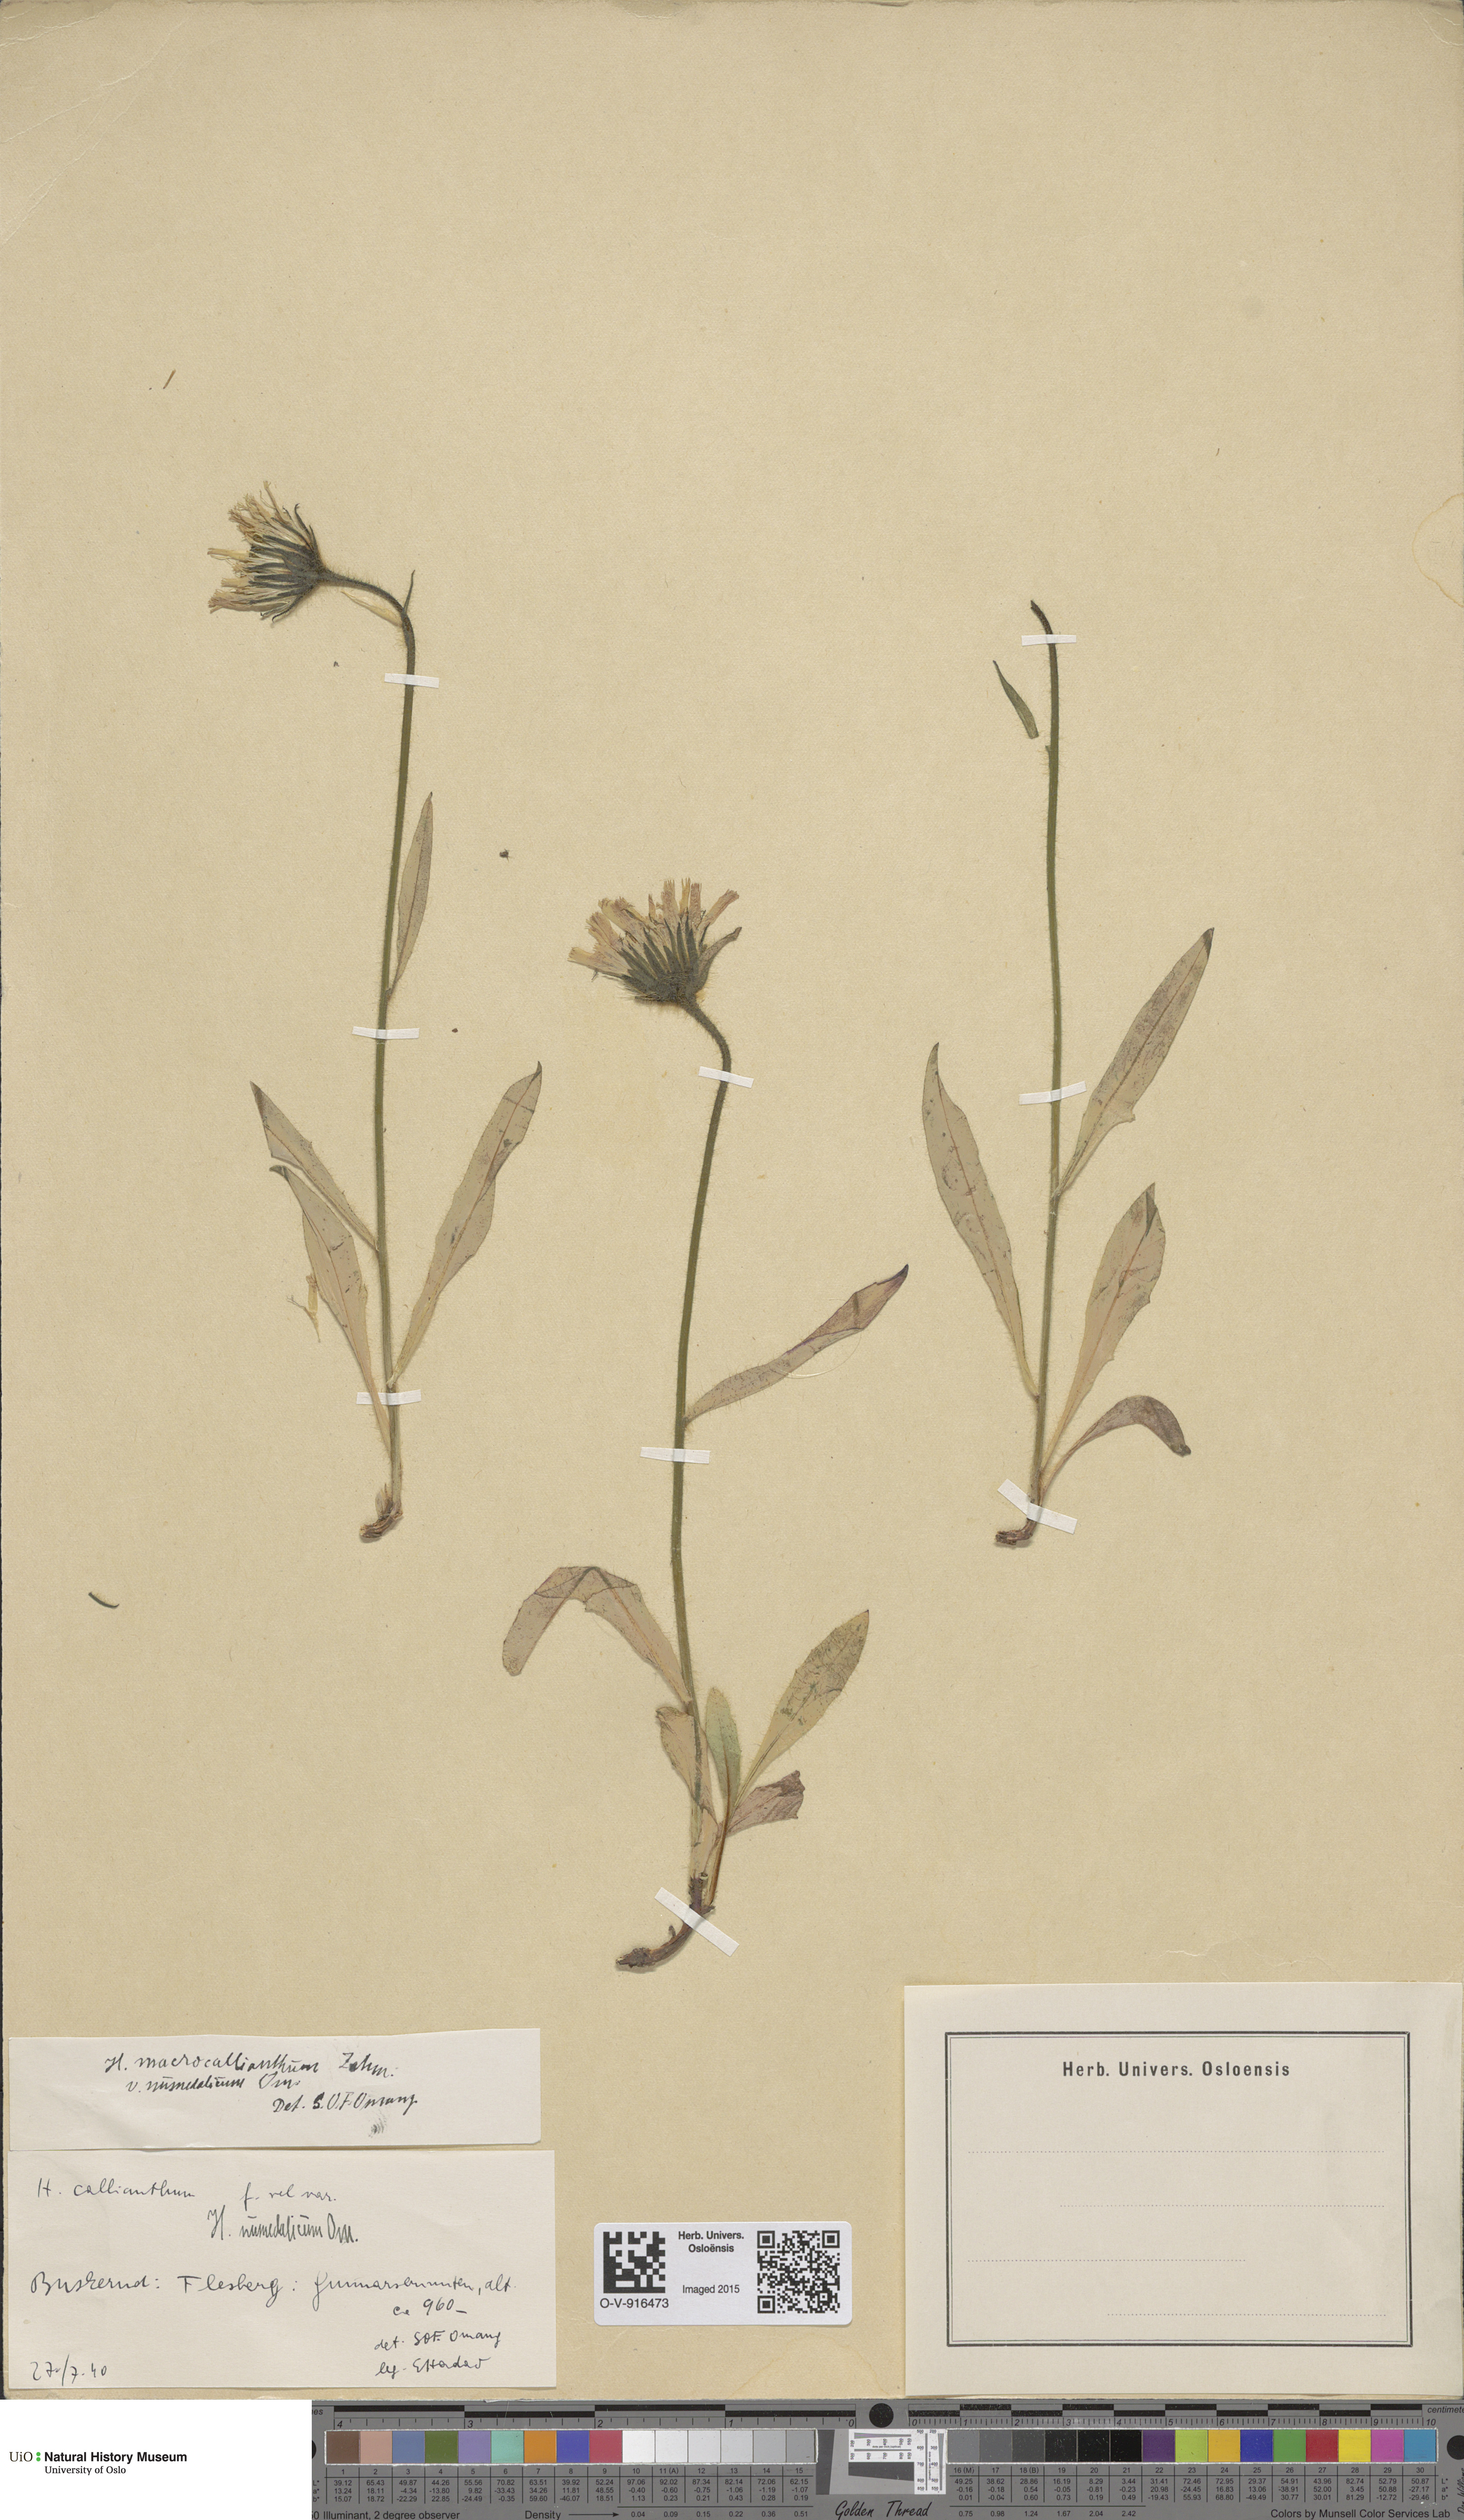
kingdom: Plantae
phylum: Tracheophyta
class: Magnoliopsida
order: Asterales
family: Asteraceae
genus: Hieracium
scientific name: Hieracium
